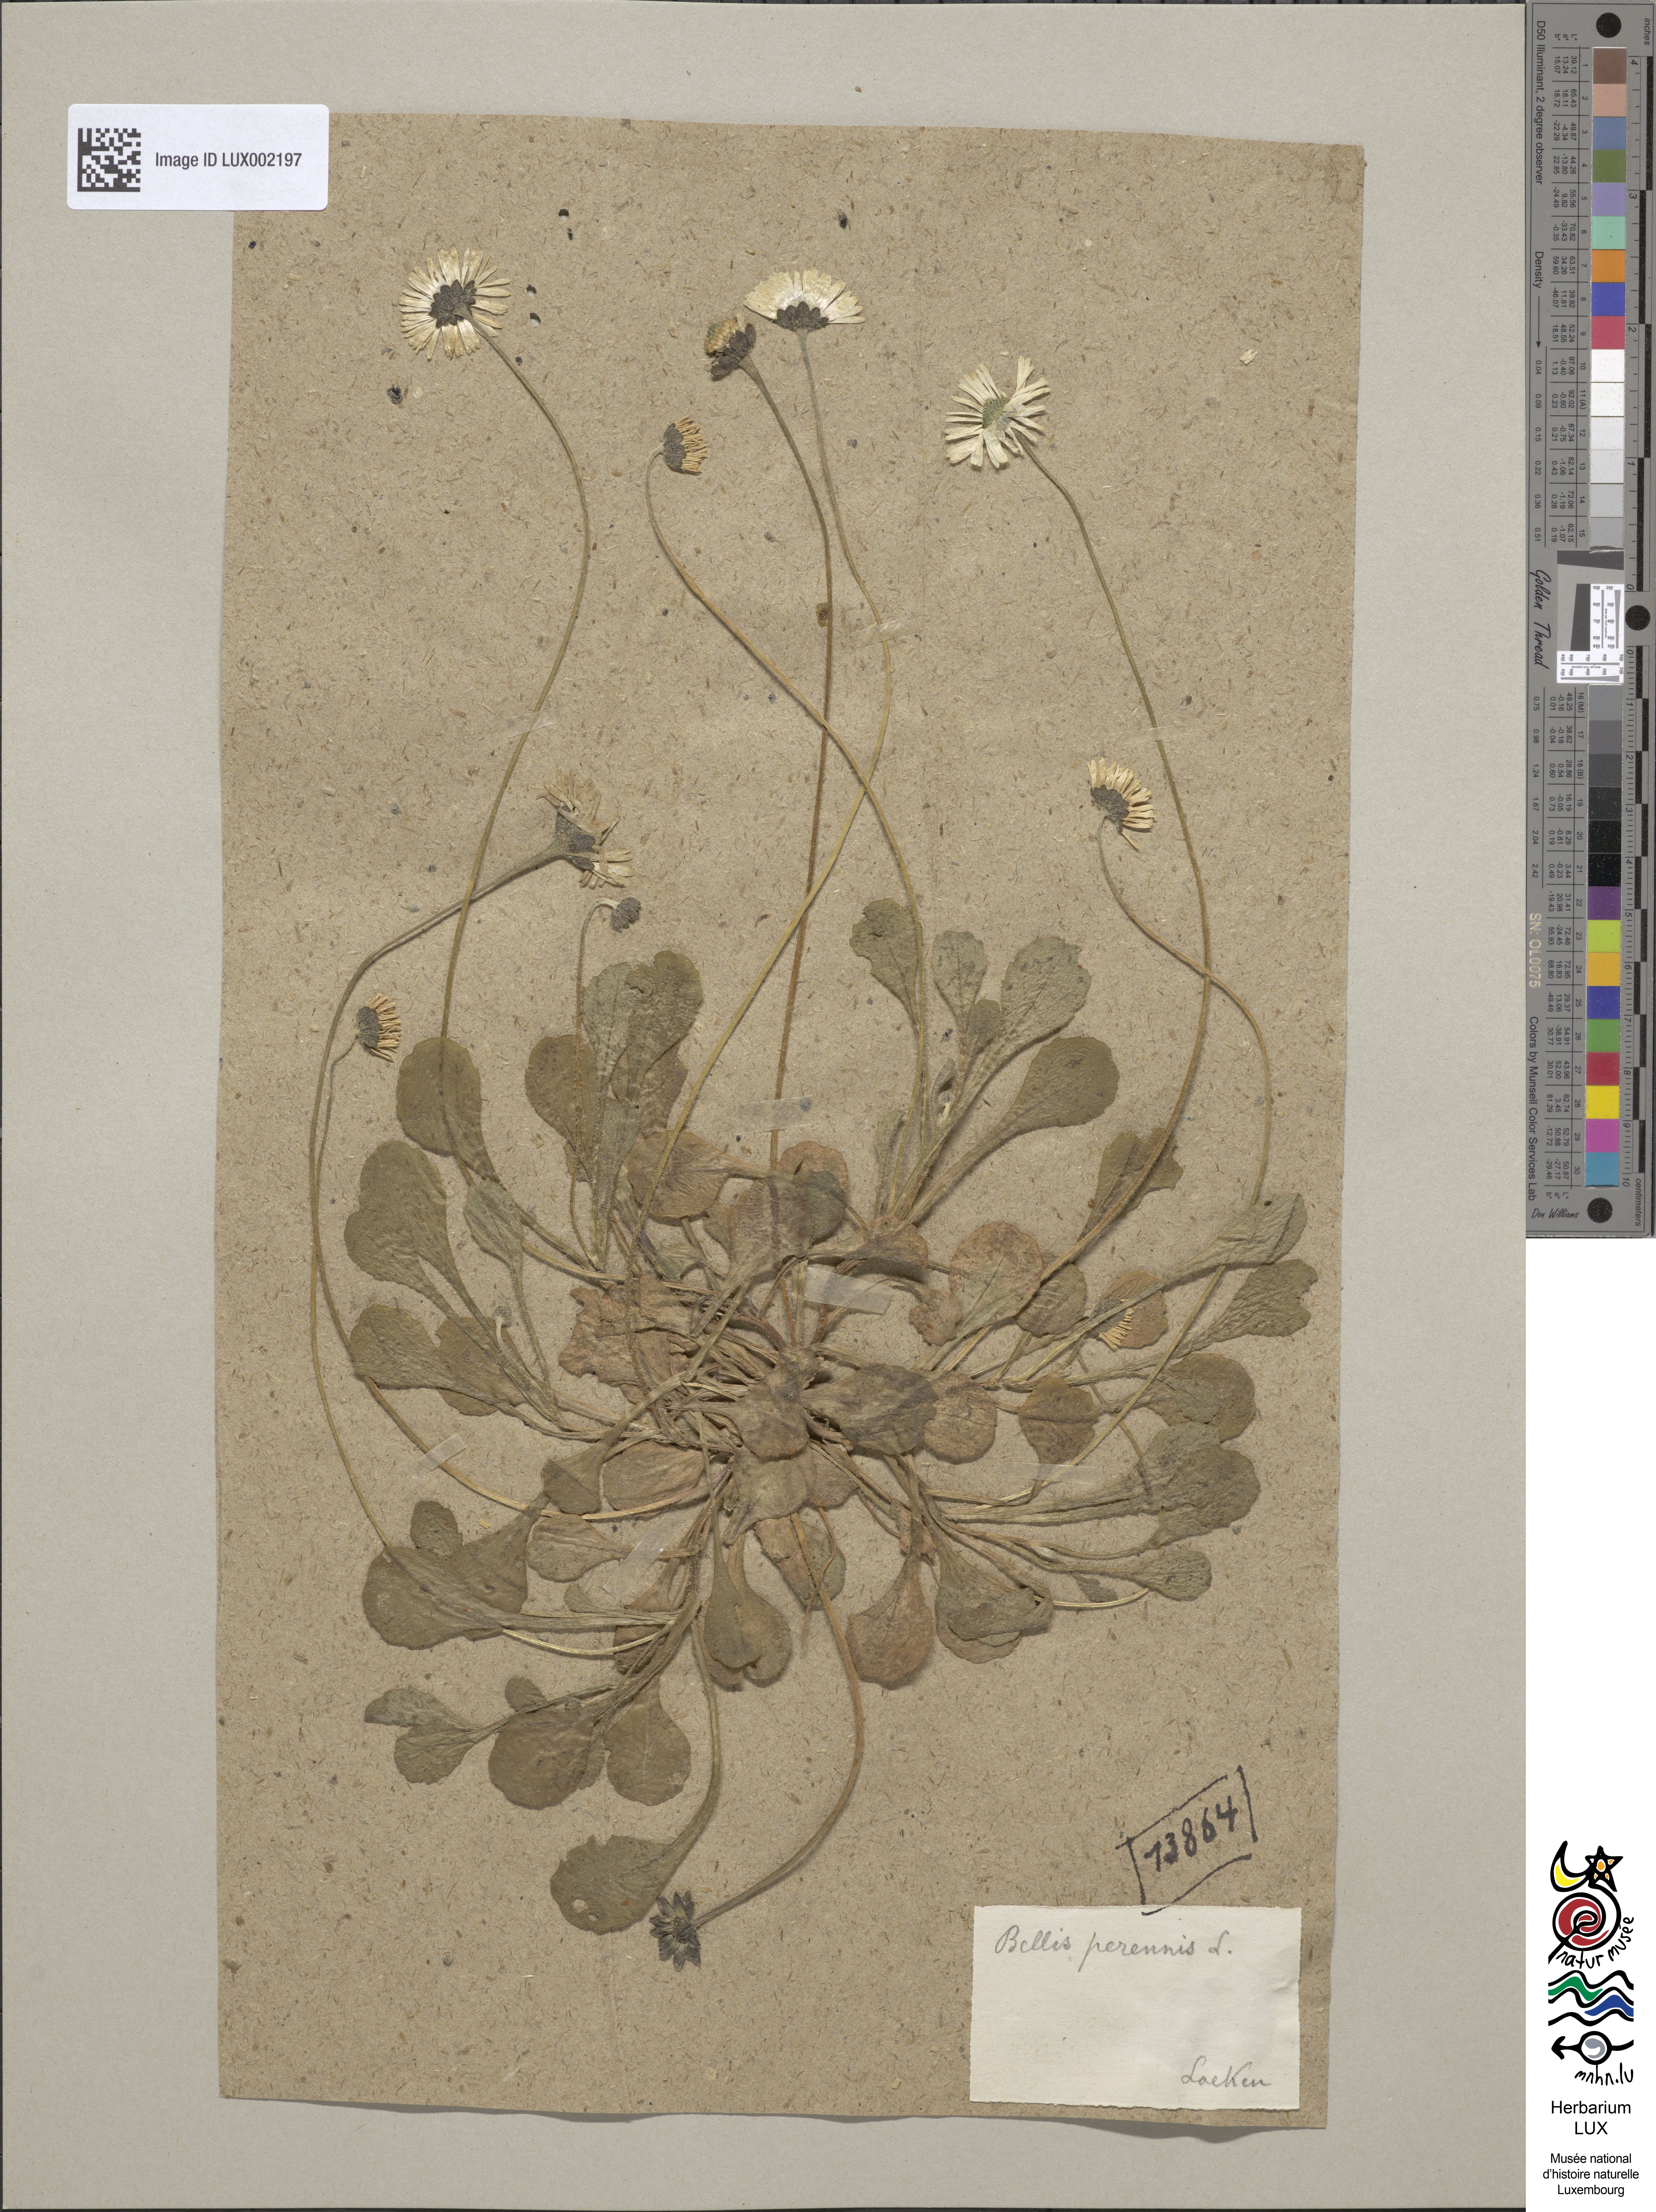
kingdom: Plantae
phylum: Tracheophyta
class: Magnoliopsida
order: Asterales
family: Asteraceae
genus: Bellis
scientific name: Bellis perennis
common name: Lawndaisy
